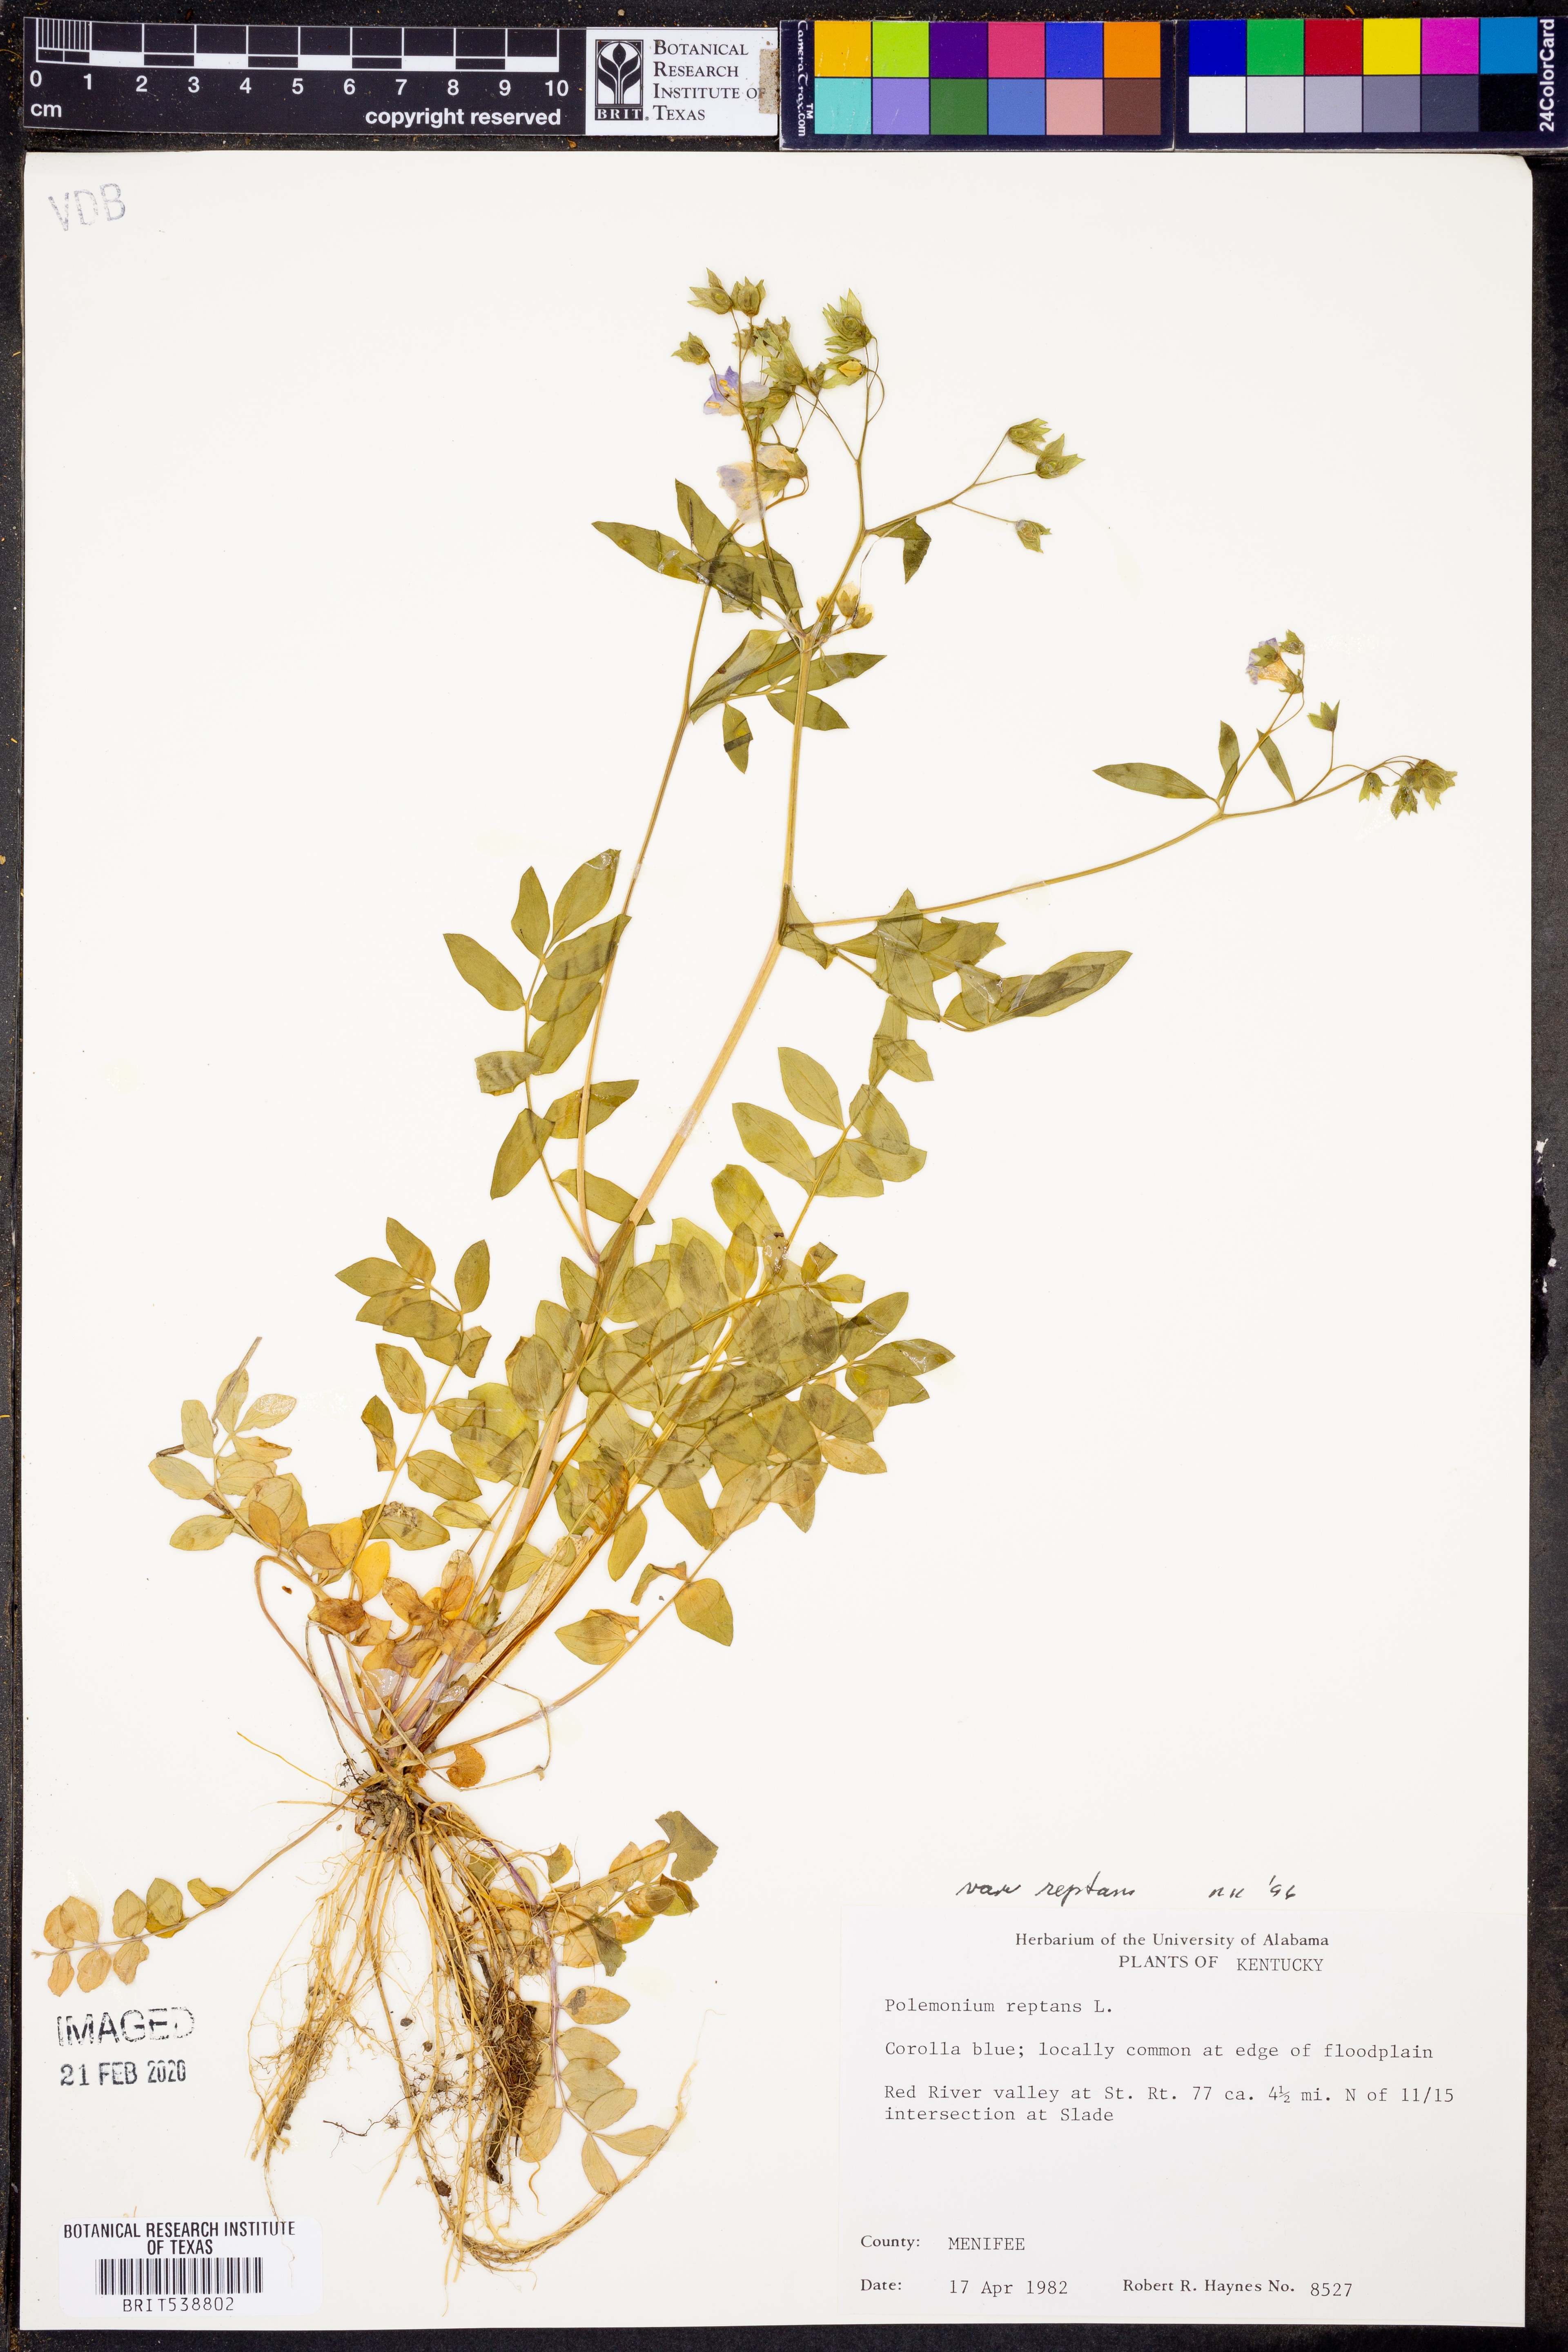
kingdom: Plantae
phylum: Tracheophyta
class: Magnoliopsida
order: Ericales
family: Polemoniaceae
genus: Polemonium
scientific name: Polemonium reptans
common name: Creeping jacob's-ladder
